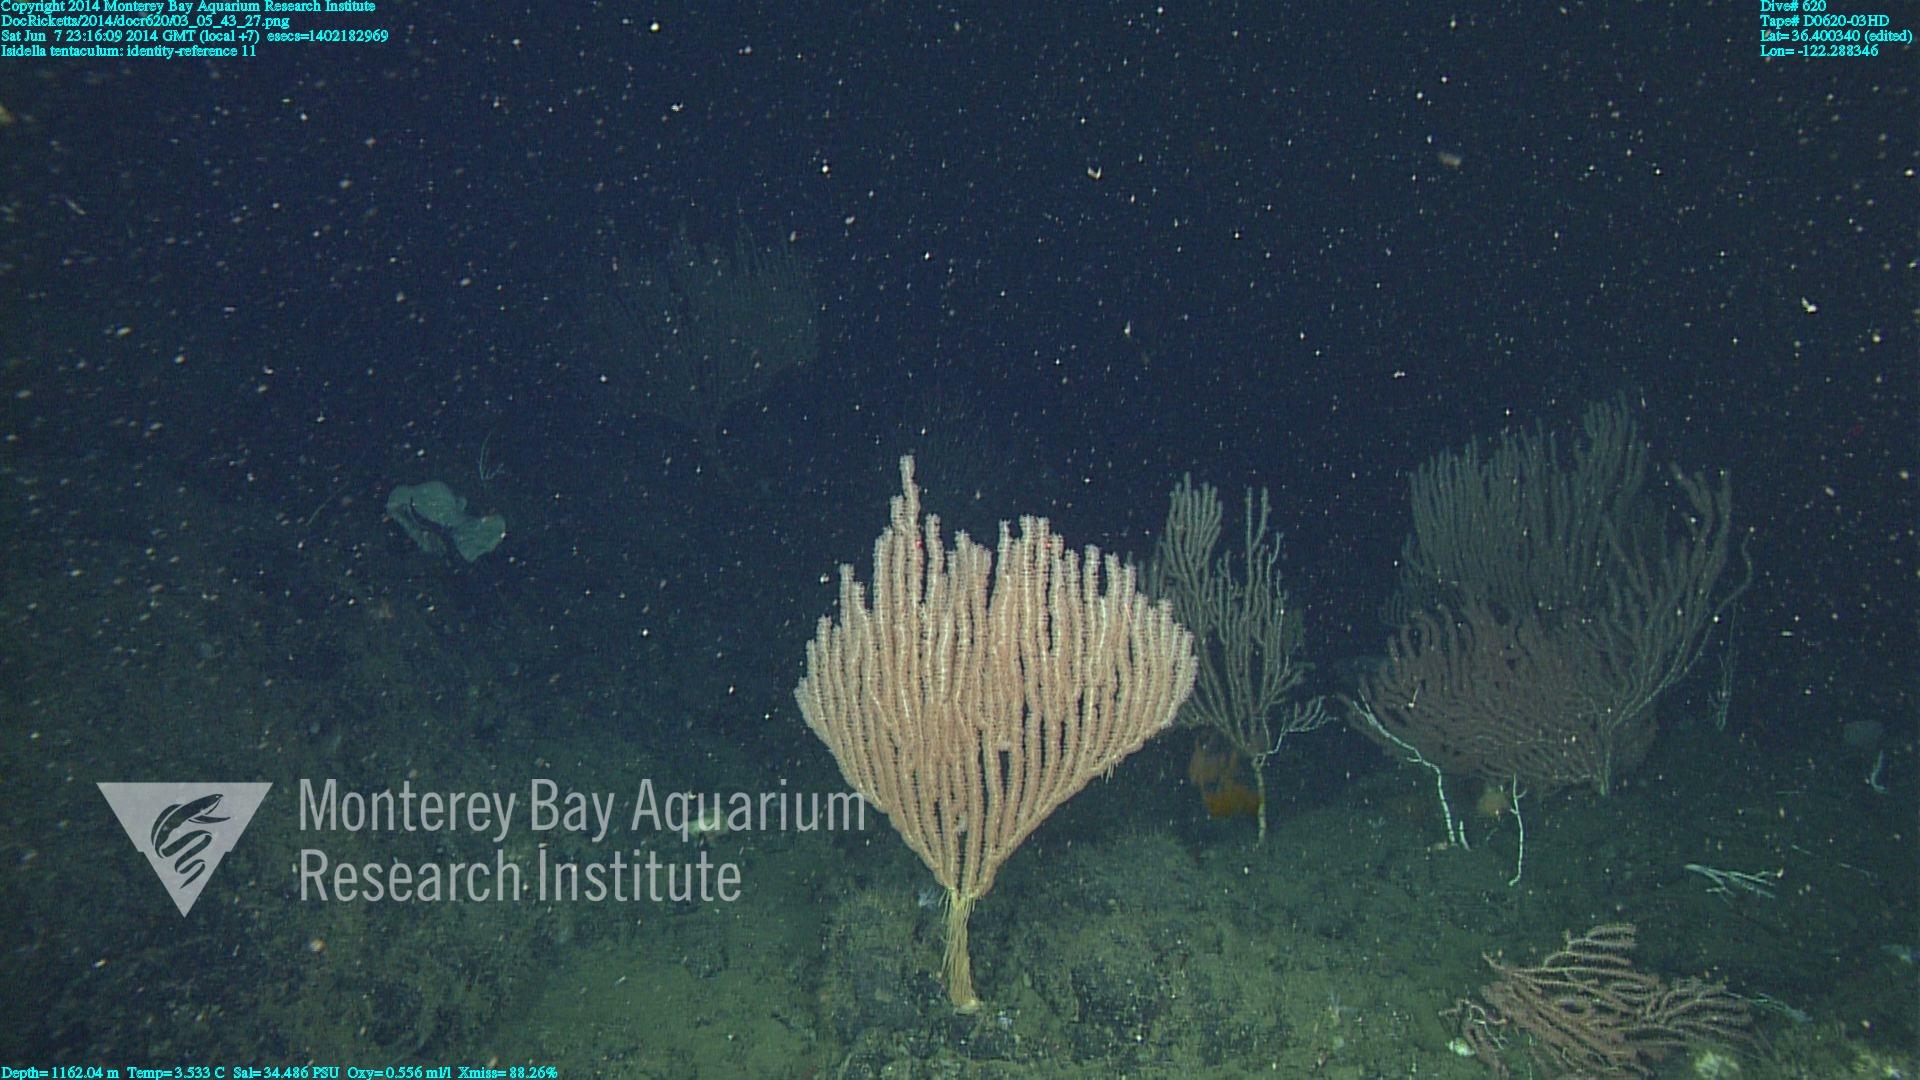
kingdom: Animalia
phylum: Cnidaria
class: Anthozoa
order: Scleralcyonacea
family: Keratoisididae
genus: Isidella
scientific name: Isidella tentaculum
